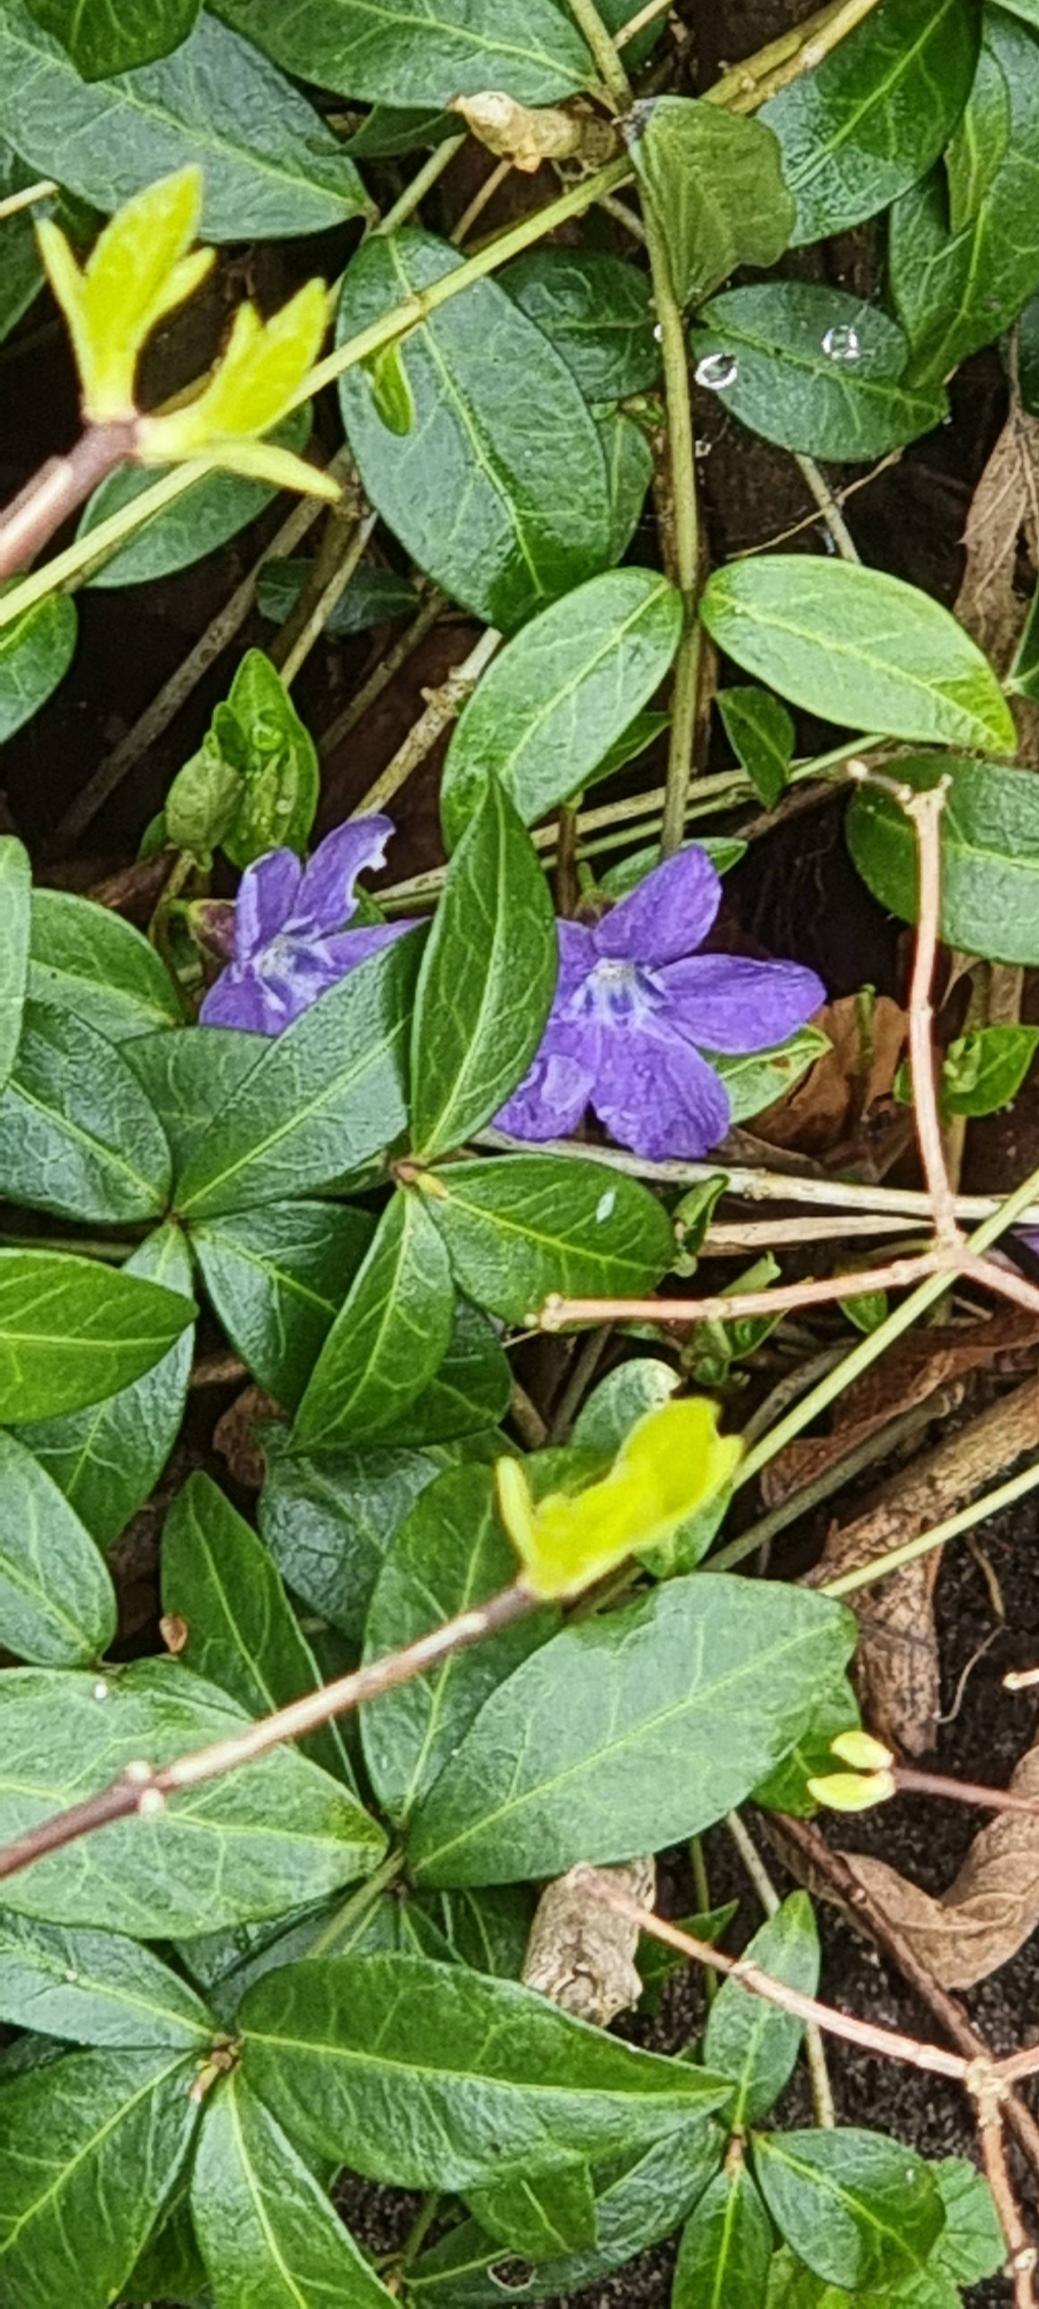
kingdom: Plantae
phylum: Tracheophyta
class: Magnoliopsida
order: Gentianales
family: Apocynaceae
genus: Vinca
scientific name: Vinca minor
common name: Liden singrøn
